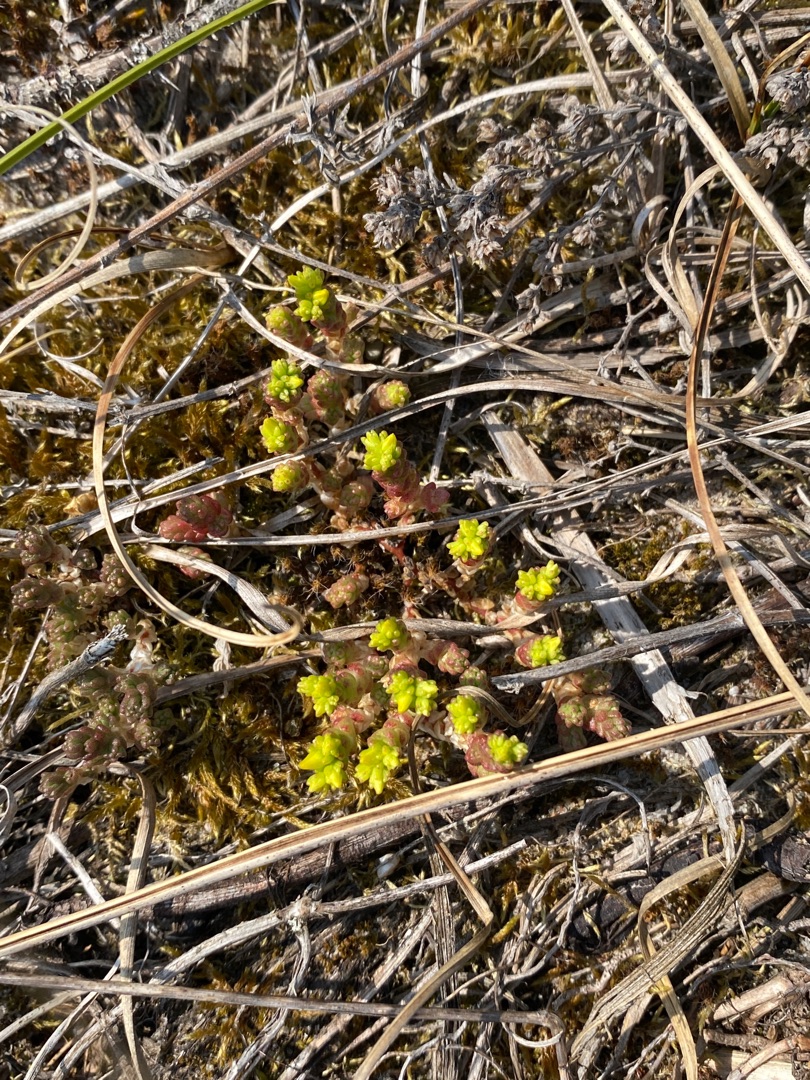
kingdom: Plantae
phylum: Tracheophyta
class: Magnoliopsida
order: Saxifragales
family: Crassulaceae
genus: Sedum
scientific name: Sedum acre
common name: Bidende stenurt
